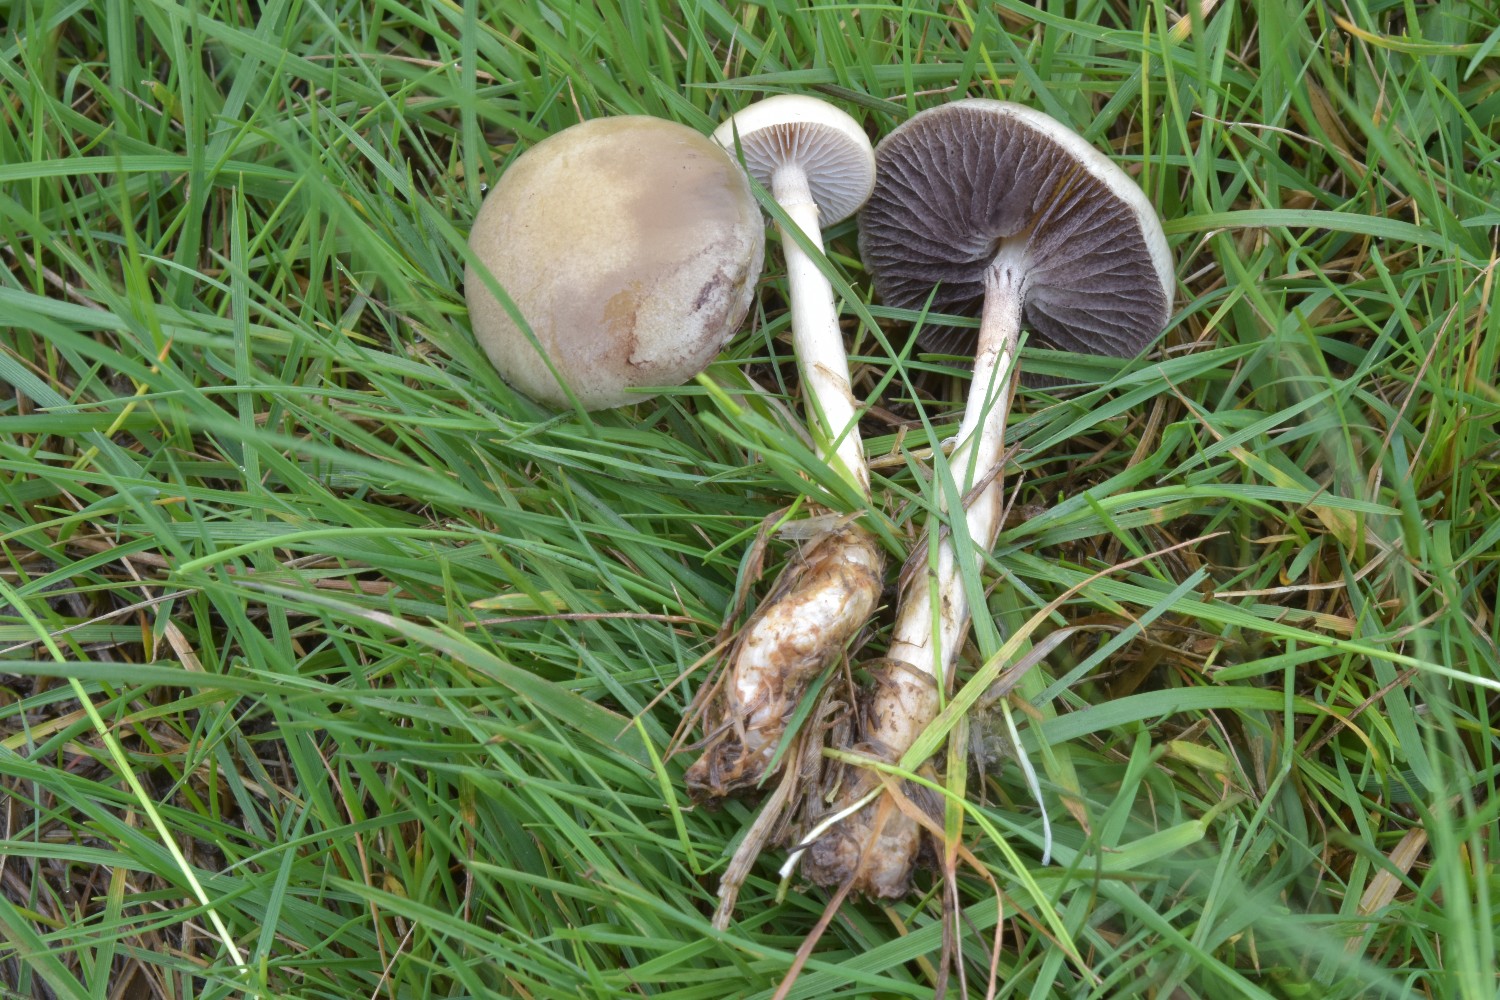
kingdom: Fungi
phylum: Basidiomycota
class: Agaricomycetes
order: Agaricales
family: Strophariaceae
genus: Protostropharia
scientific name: Protostropharia semiglobata
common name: halvkugleformet bredblad
